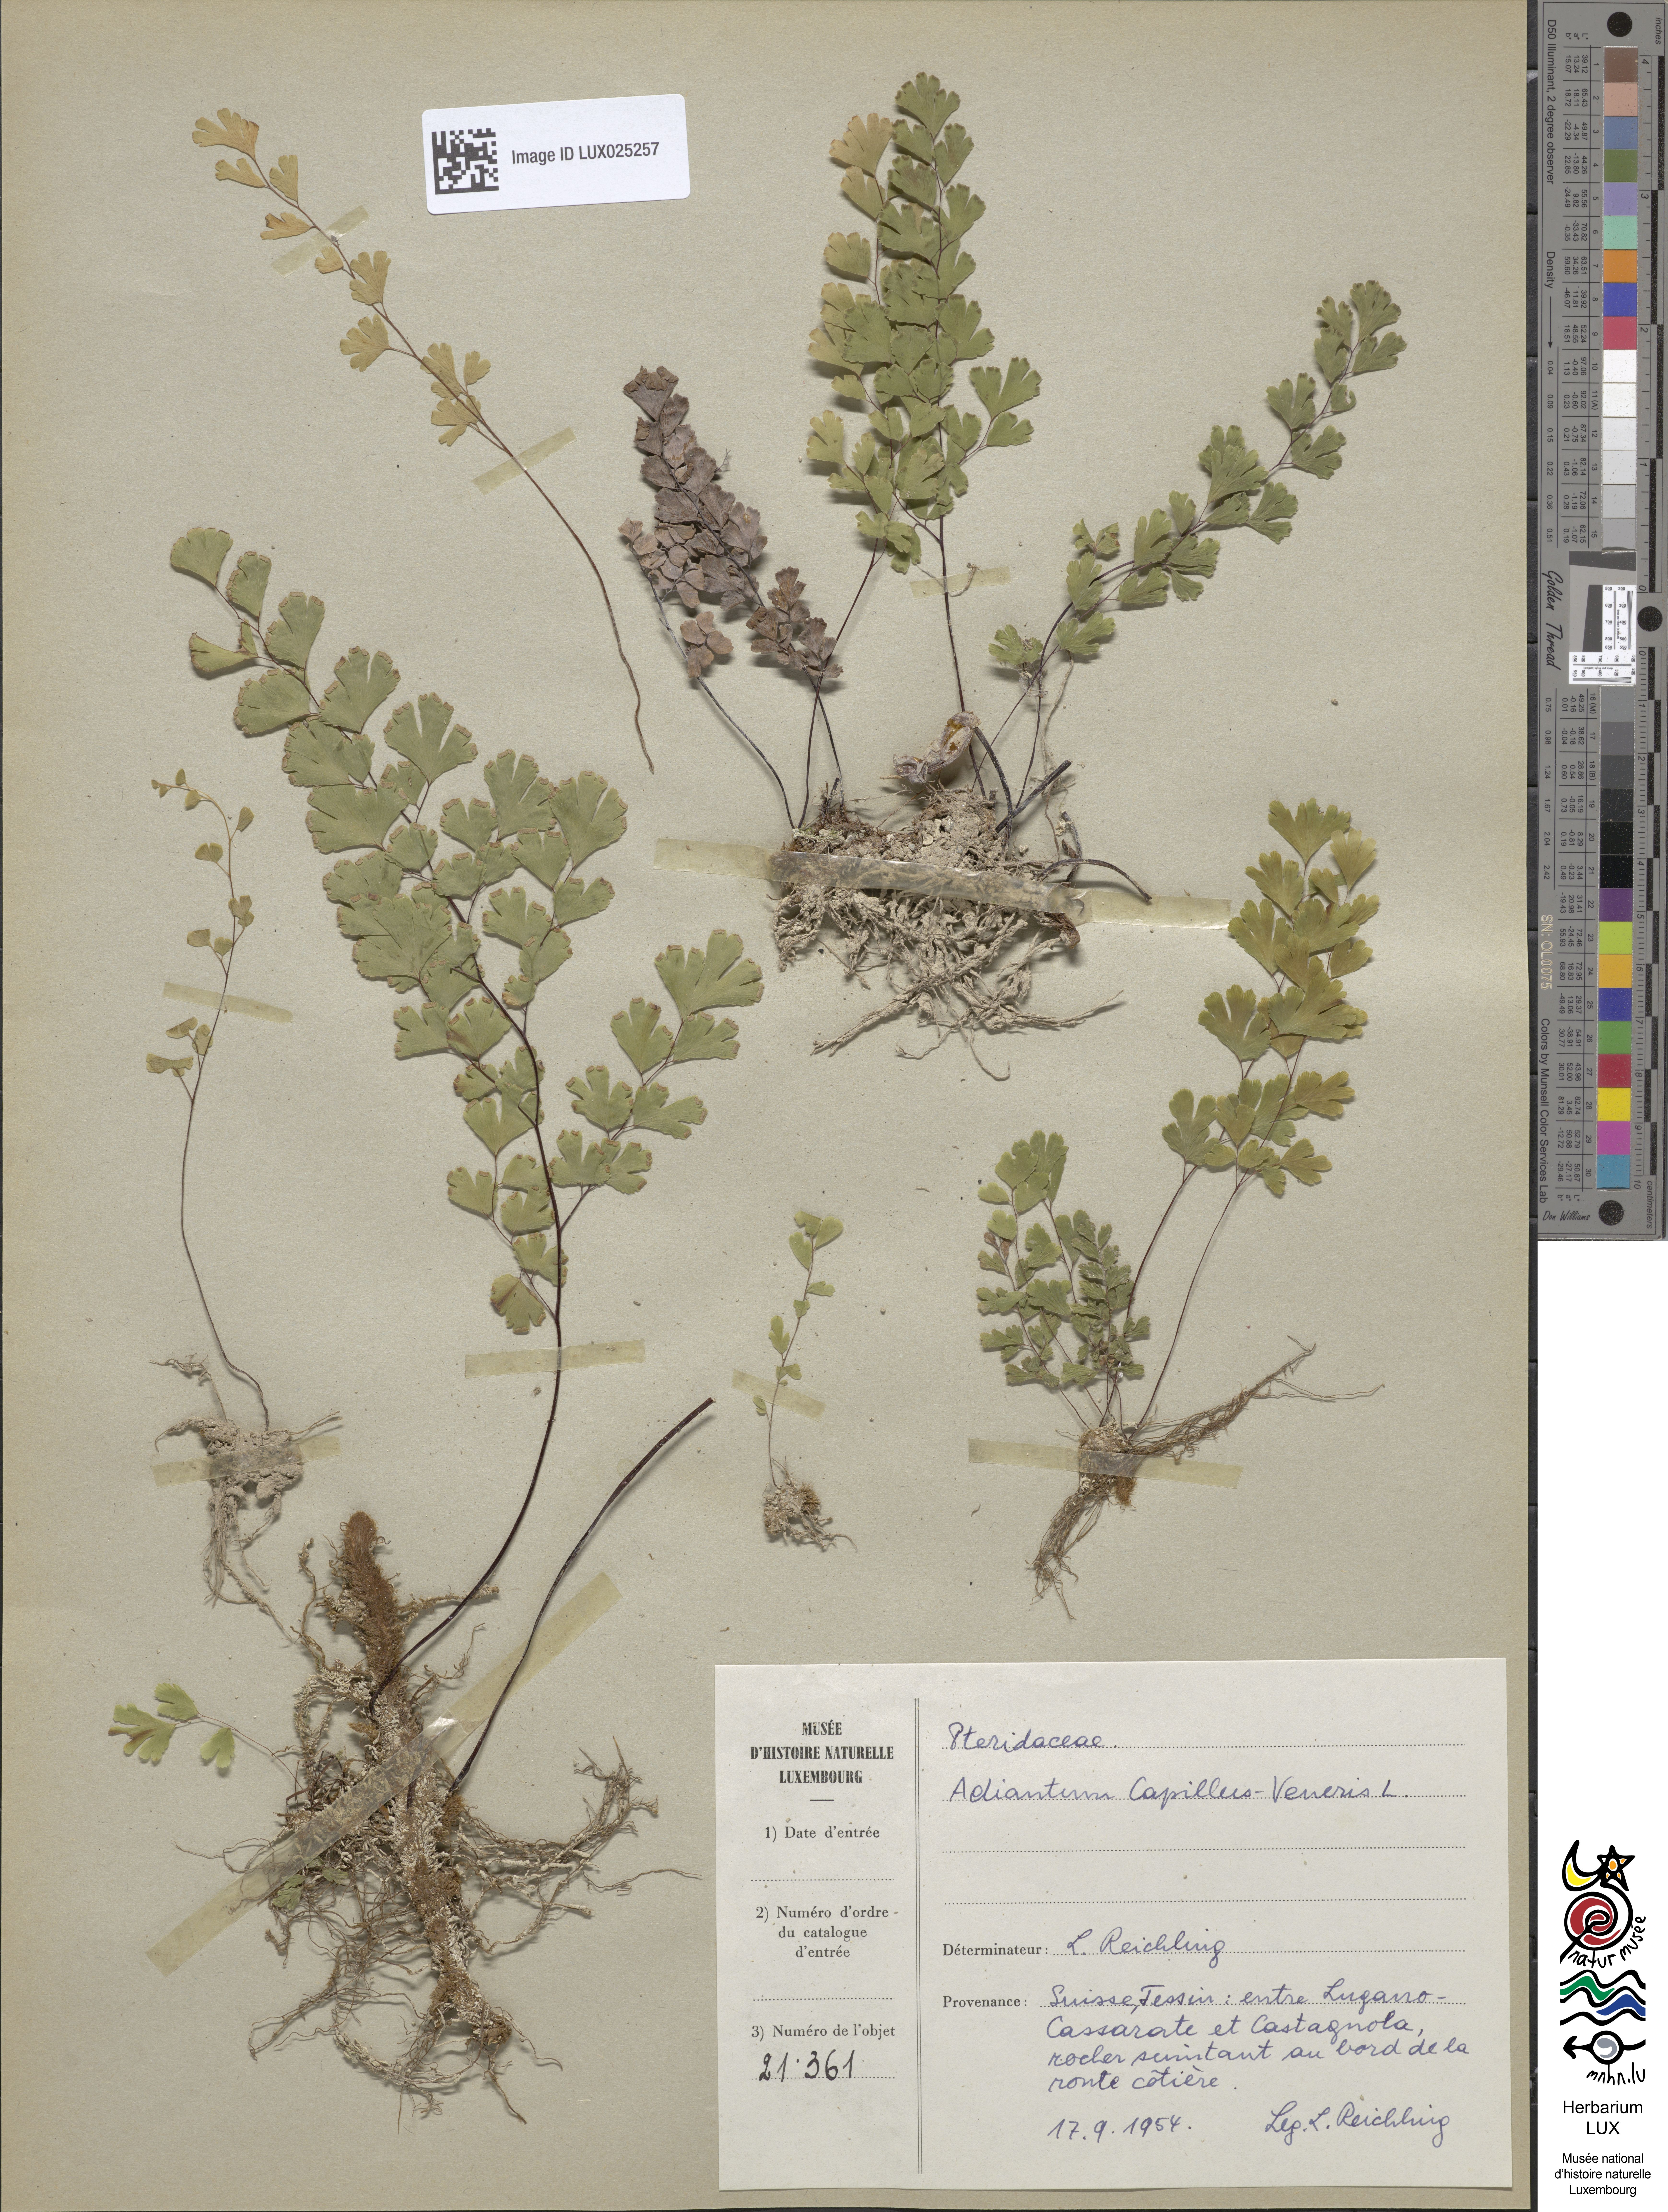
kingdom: Plantae
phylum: Tracheophyta
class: Polypodiopsida
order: Polypodiales
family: Pteridaceae
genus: Adiantum
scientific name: Adiantum capillus-veneris
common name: Maidenhair fern
